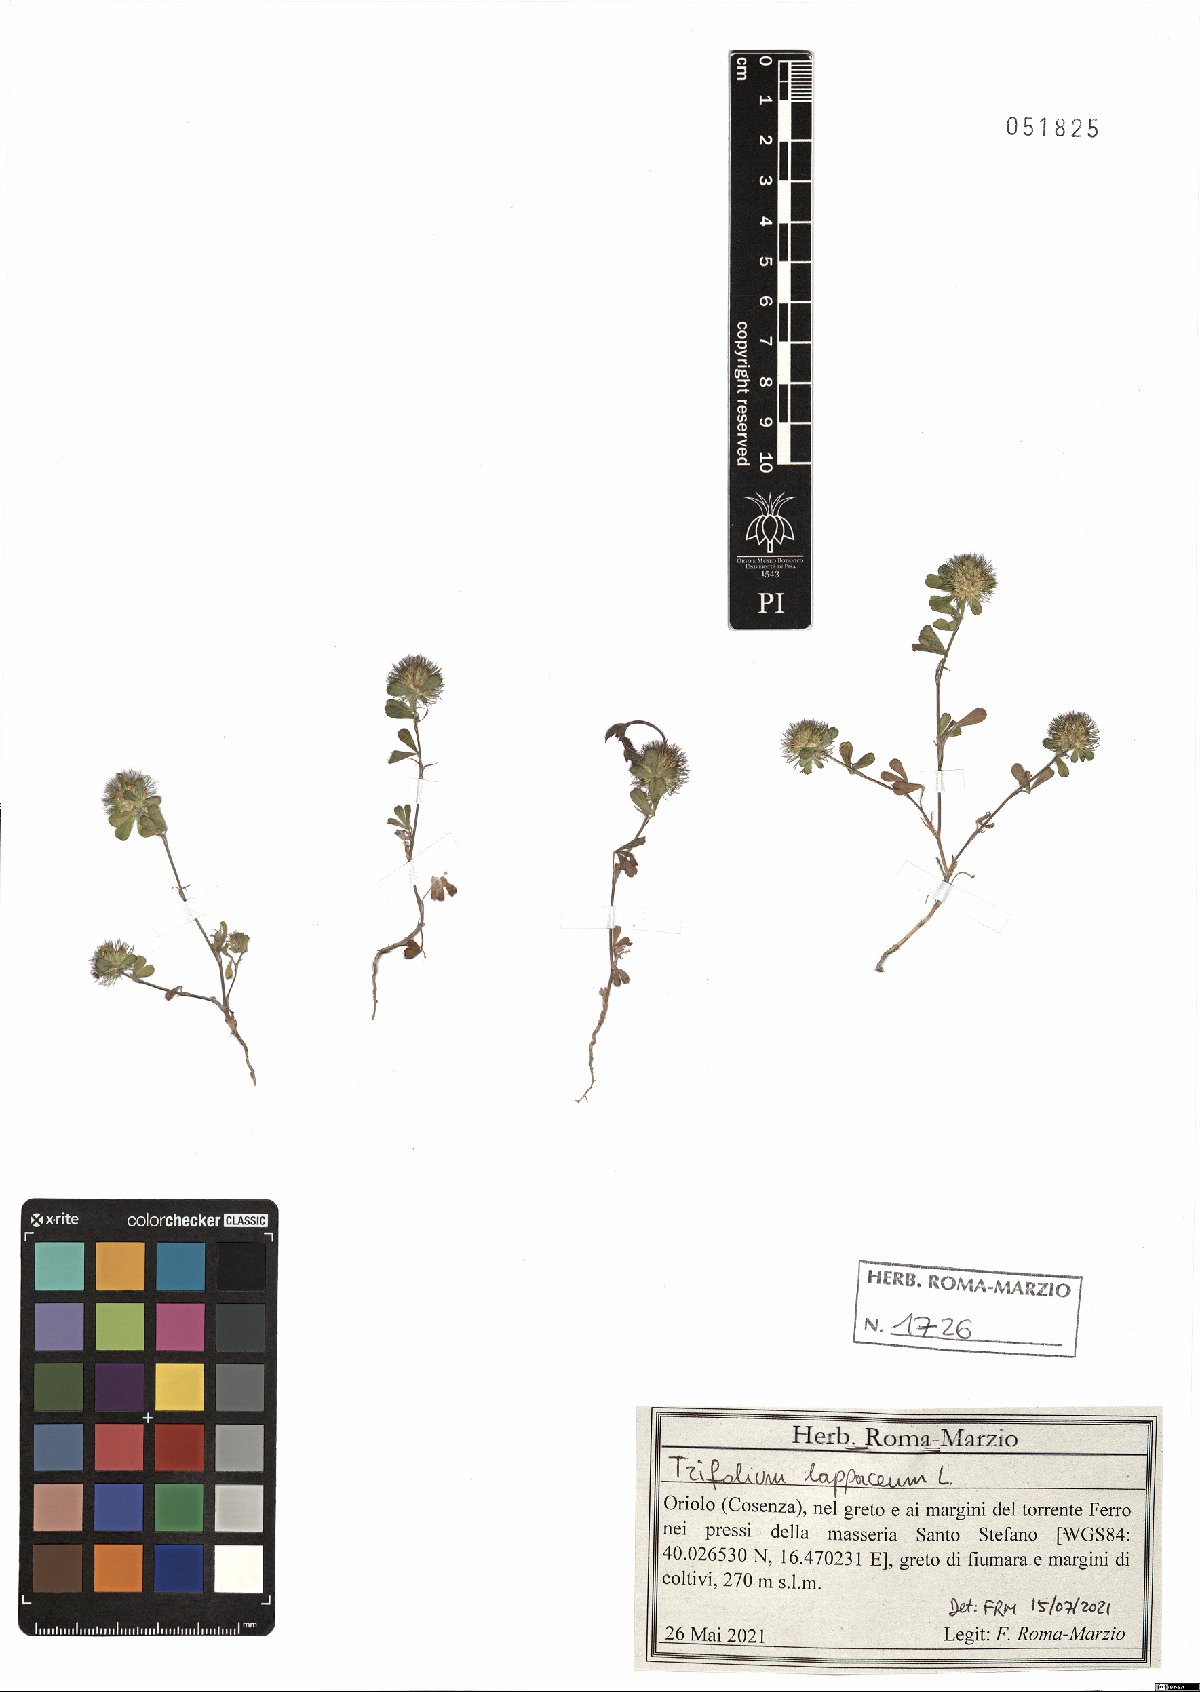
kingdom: Plantae
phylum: Tracheophyta
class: Magnoliopsida
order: Fabales
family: Fabaceae
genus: Trifolium
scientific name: Trifolium lappaceum
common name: Bur clover
